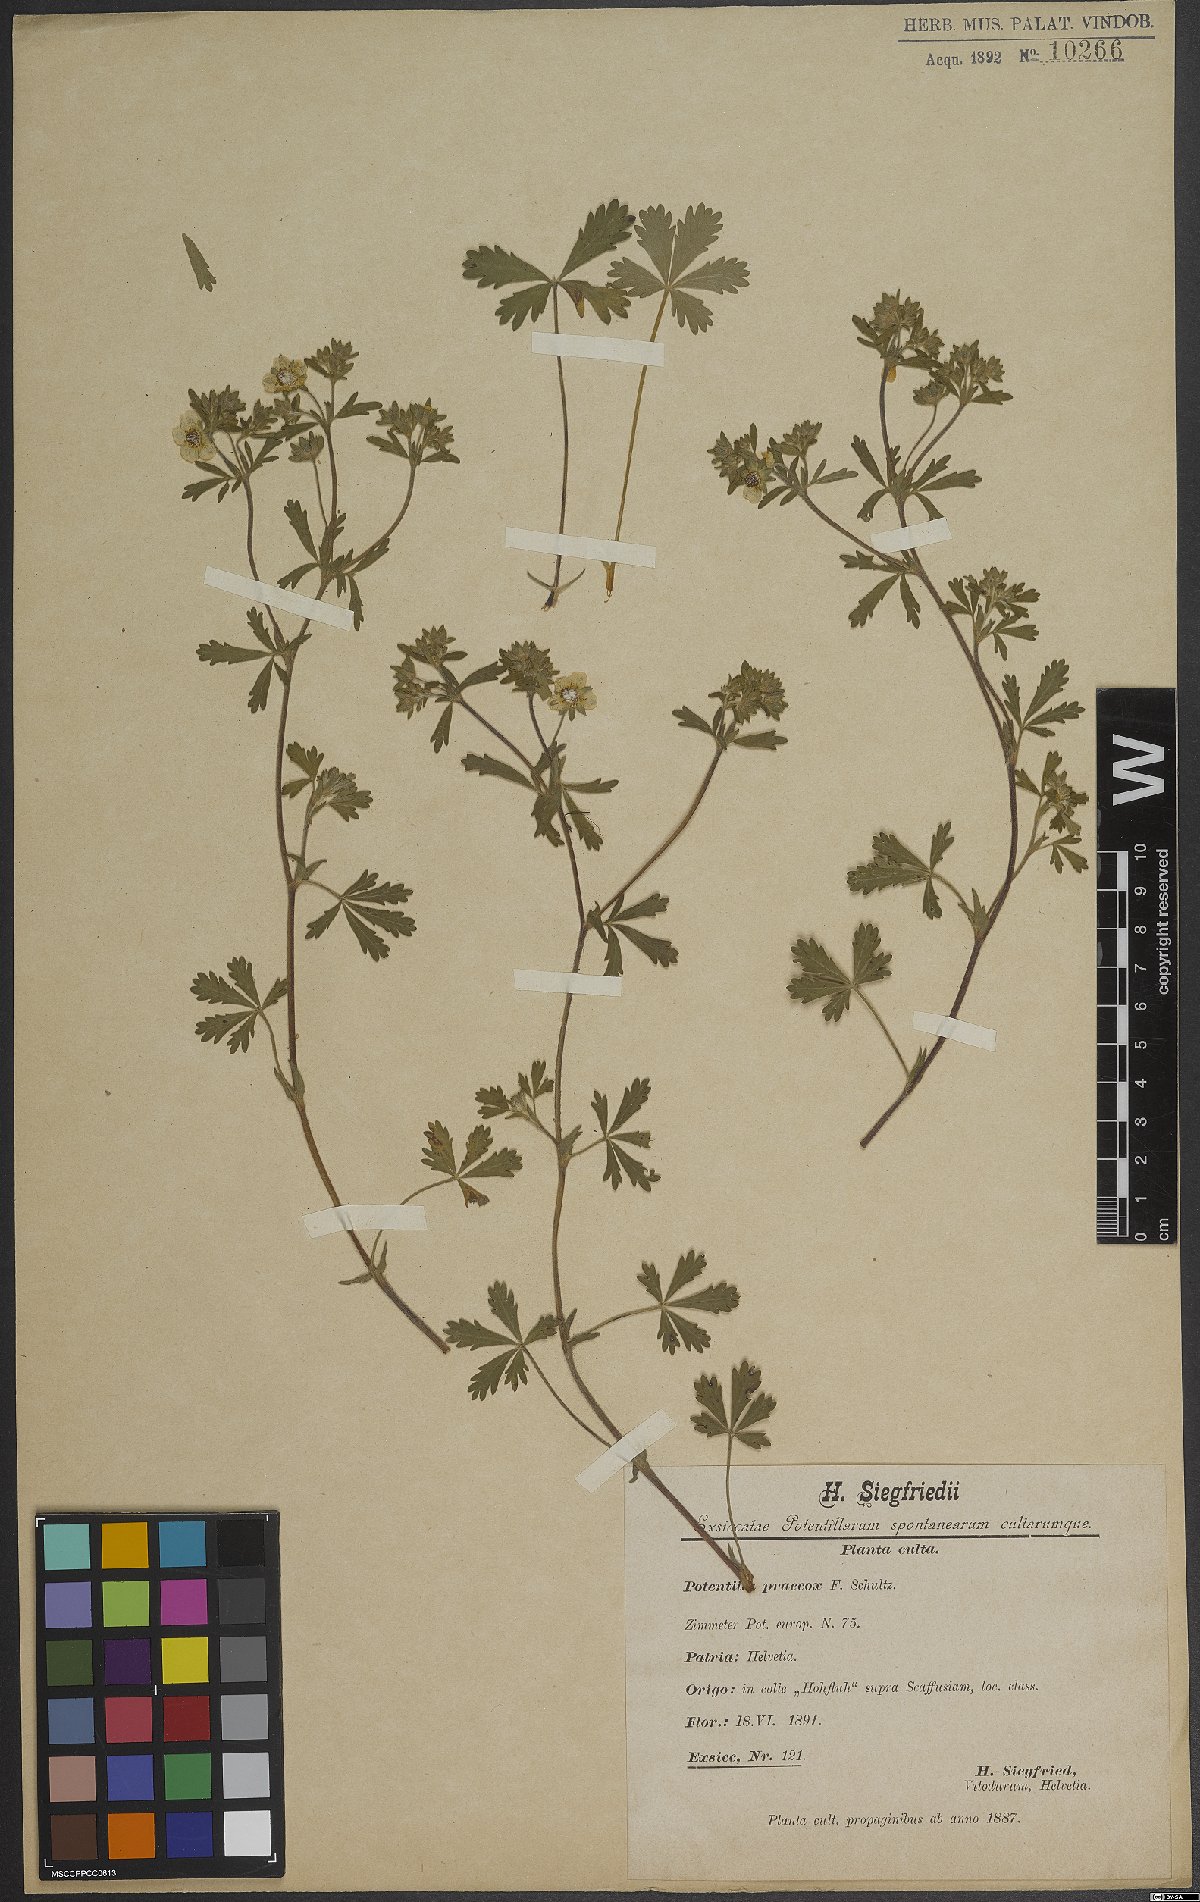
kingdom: Plantae
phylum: Tracheophyta
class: Magnoliopsida
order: Rosales
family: Rosaceae
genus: Potentilla
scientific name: Potentilla praecox
